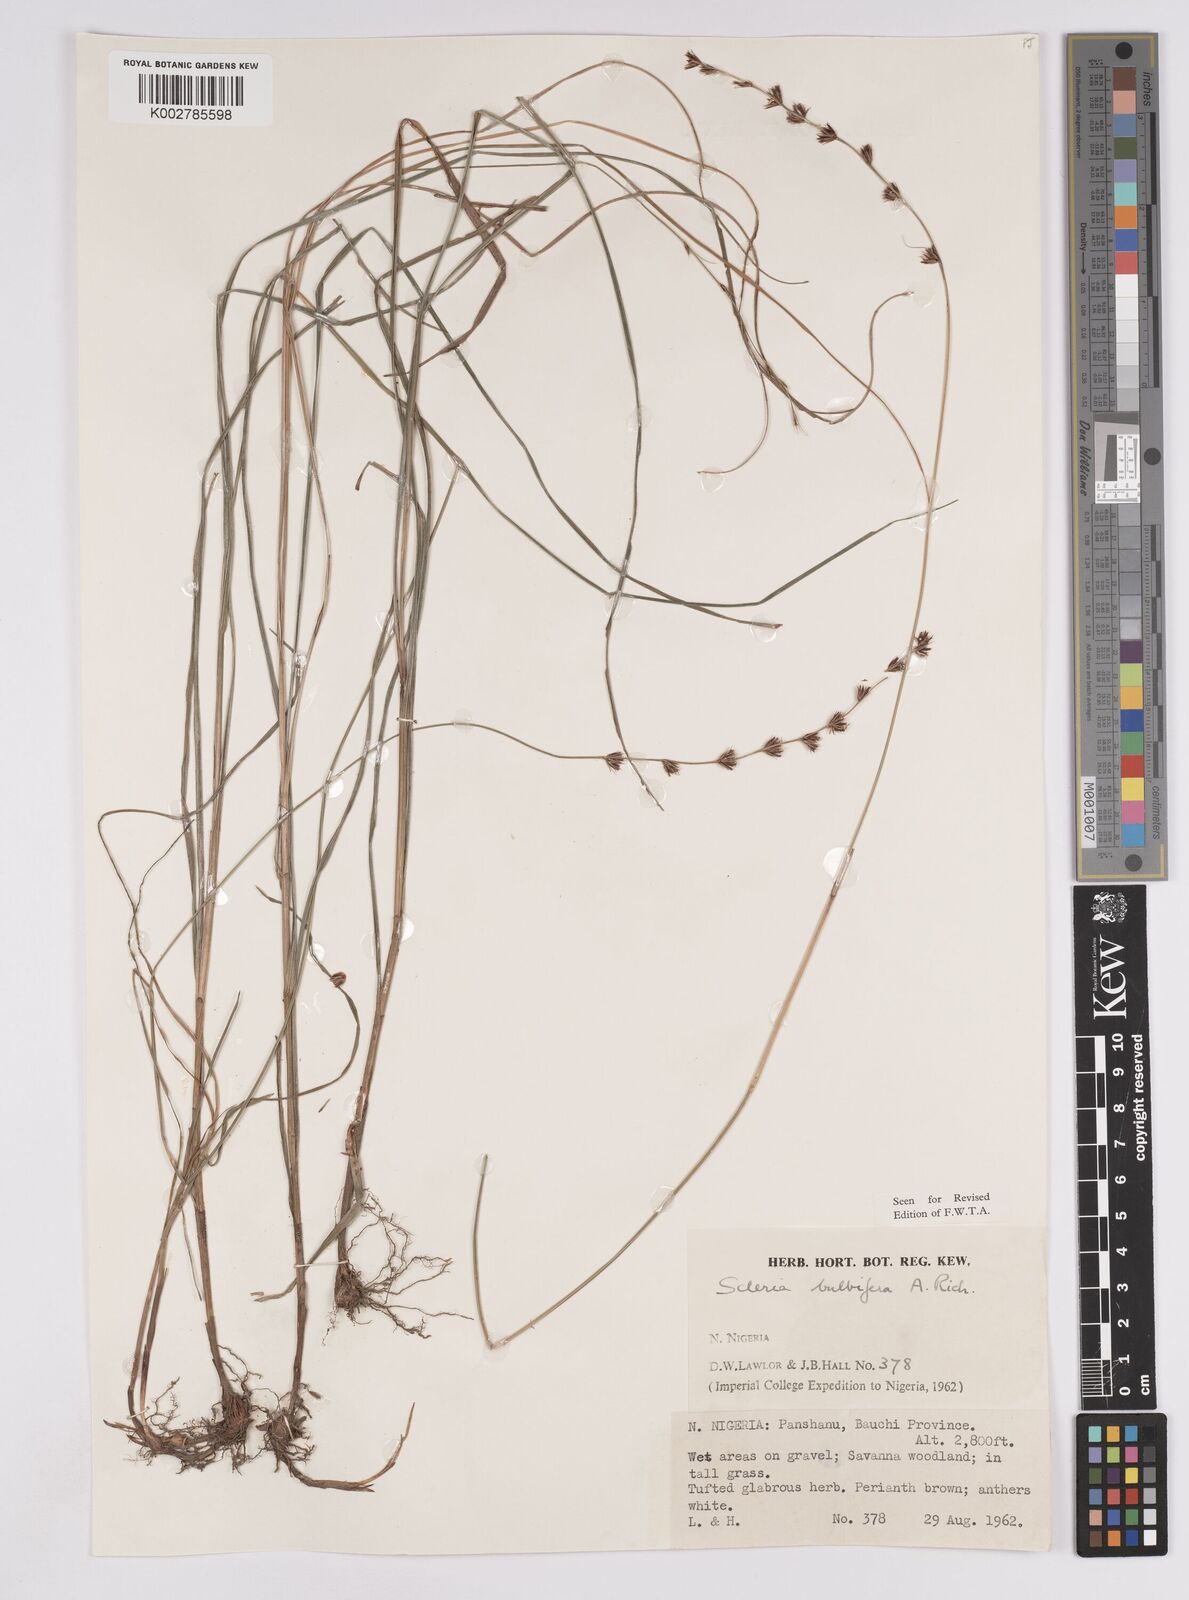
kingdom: Plantae
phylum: Tracheophyta
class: Liliopsida
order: Poales
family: Cyperaceae
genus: Scleria
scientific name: Scleria bulbifera
